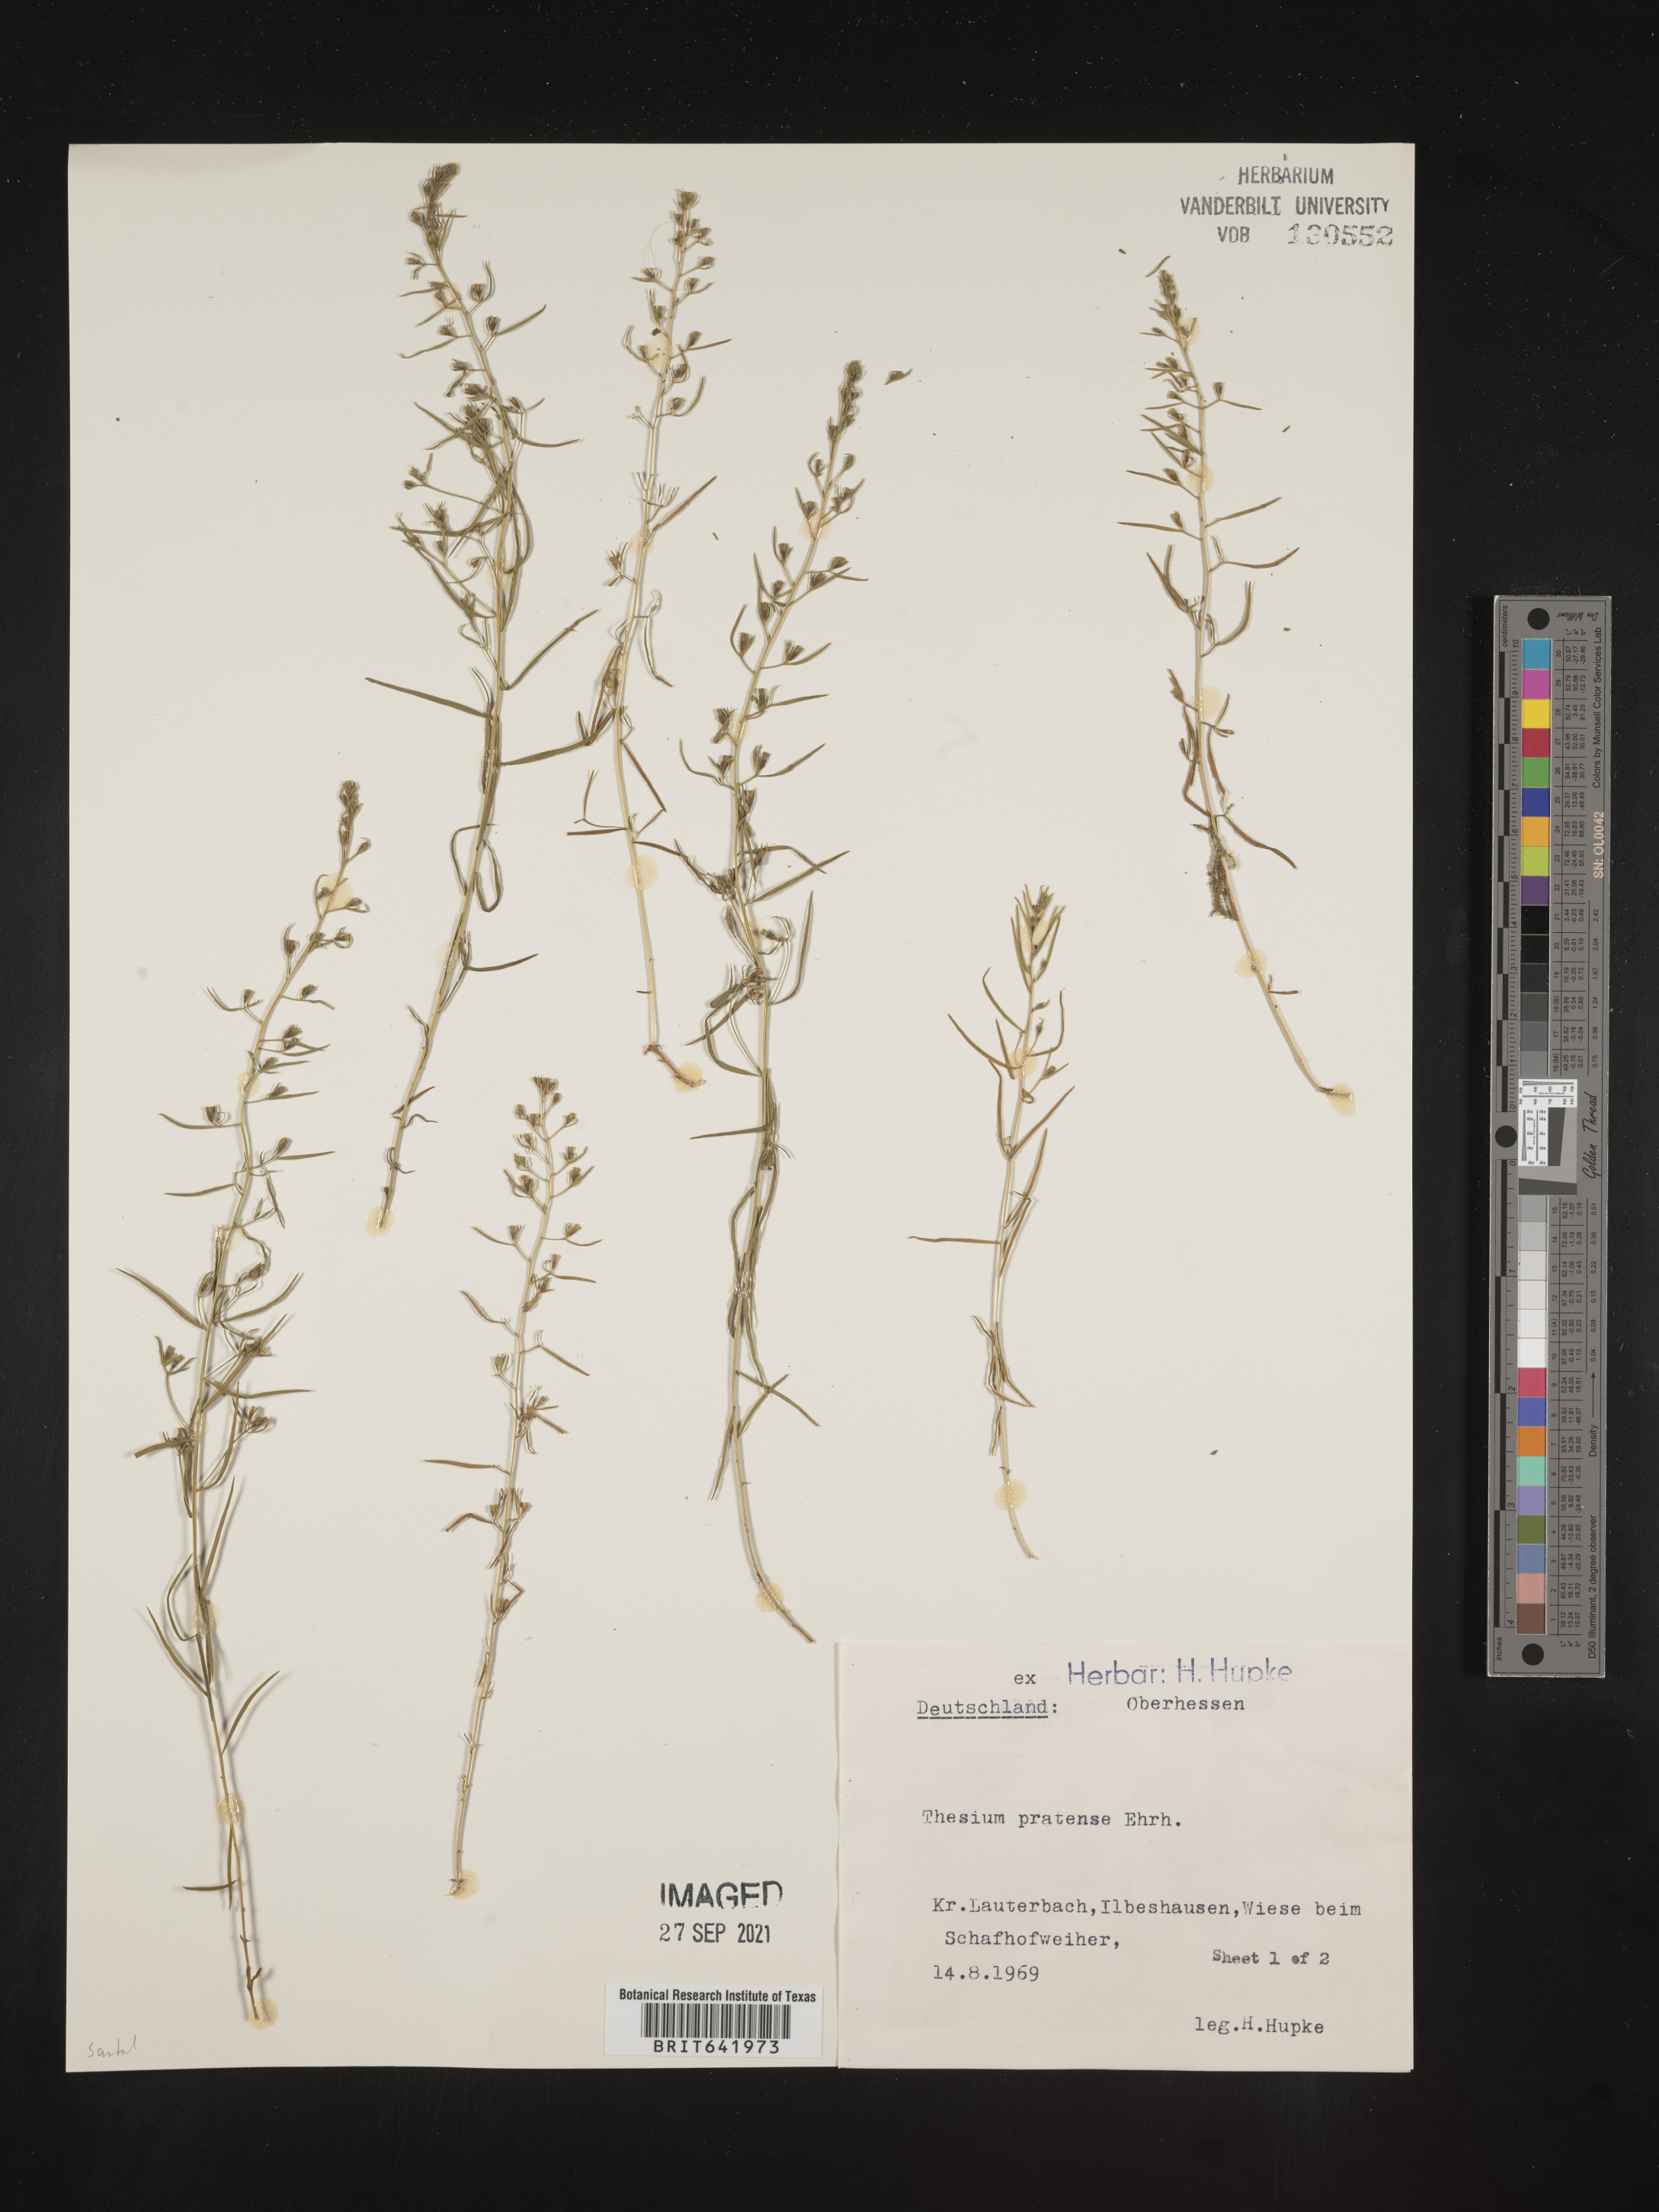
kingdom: Plantae
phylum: Tracheophyta
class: Magnoliopsida
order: Santalales
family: Thesiaceae
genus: Thesium
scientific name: Thesium
